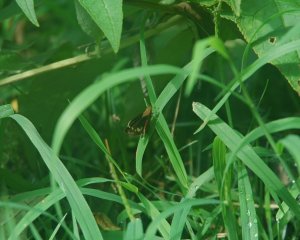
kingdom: Animalia
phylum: Arthropoda
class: Insecta
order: Lepidoptera
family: Hesperiidae
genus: Lon
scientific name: Lon zabulon
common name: Zabulon Skipper
